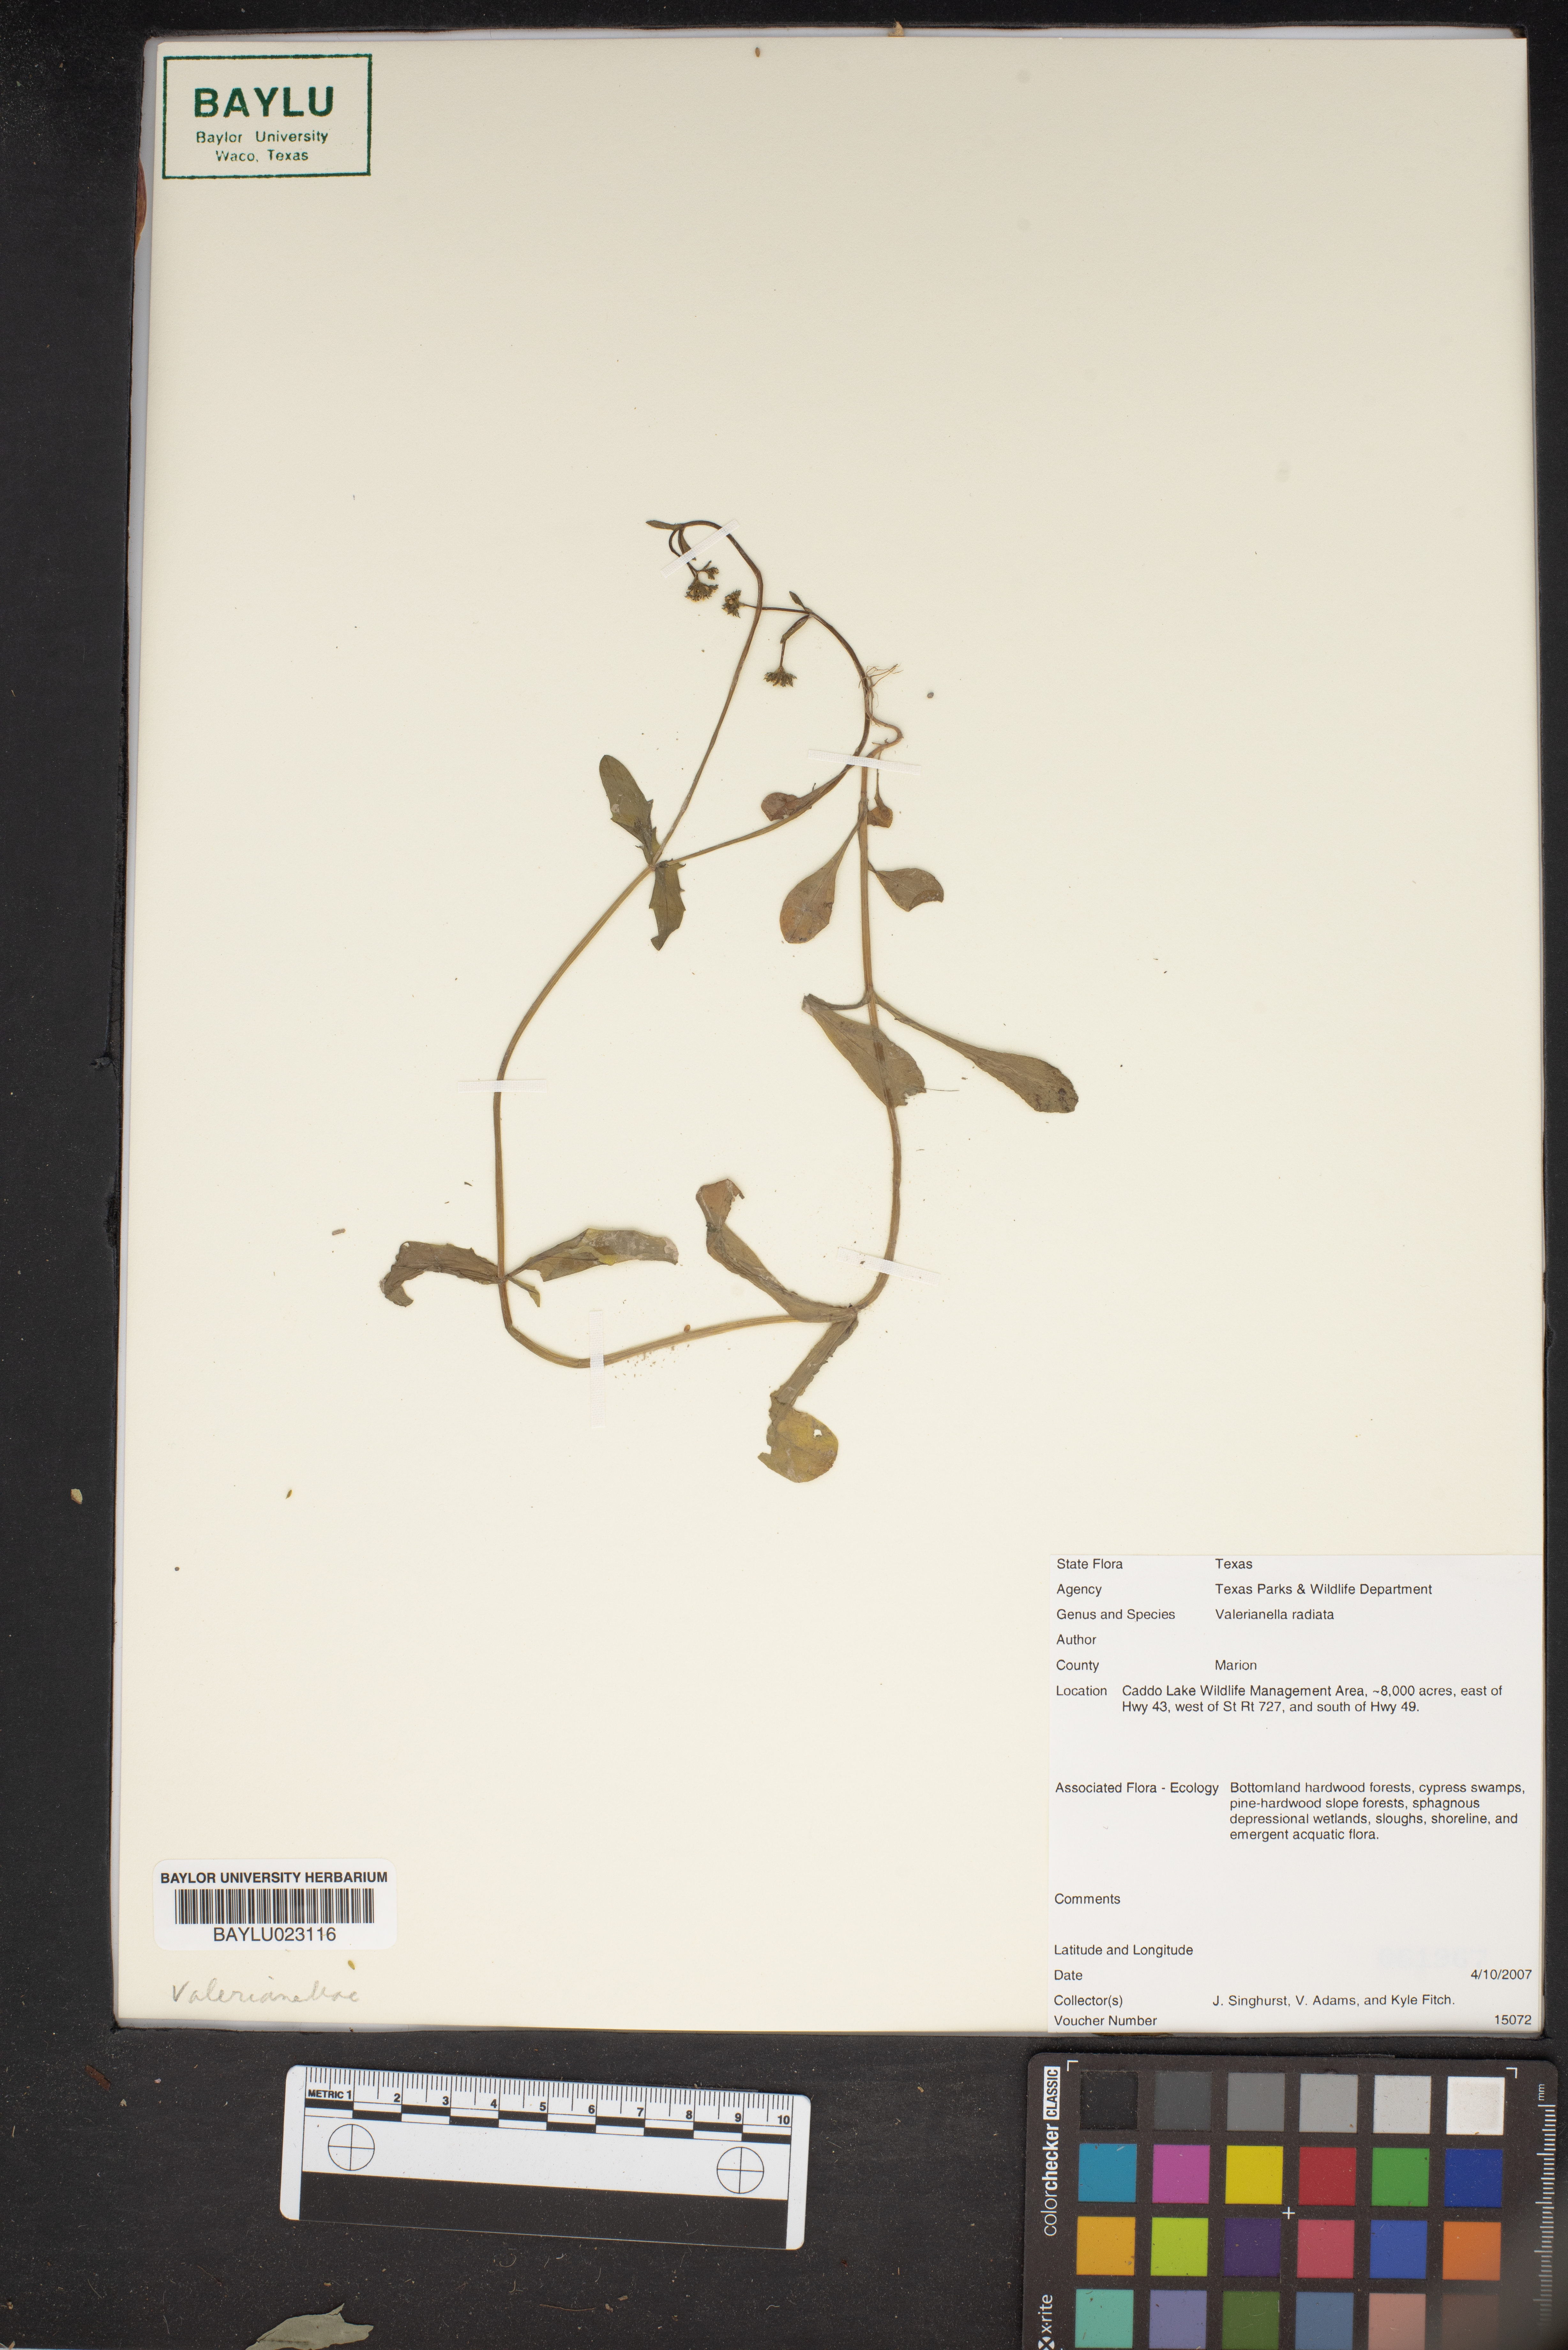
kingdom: Plantae
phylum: Tracheophyta
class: Magnoliopsida
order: Dipsacales
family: Caprifoliaceae
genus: Valerianella
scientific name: Valerianella radiata
